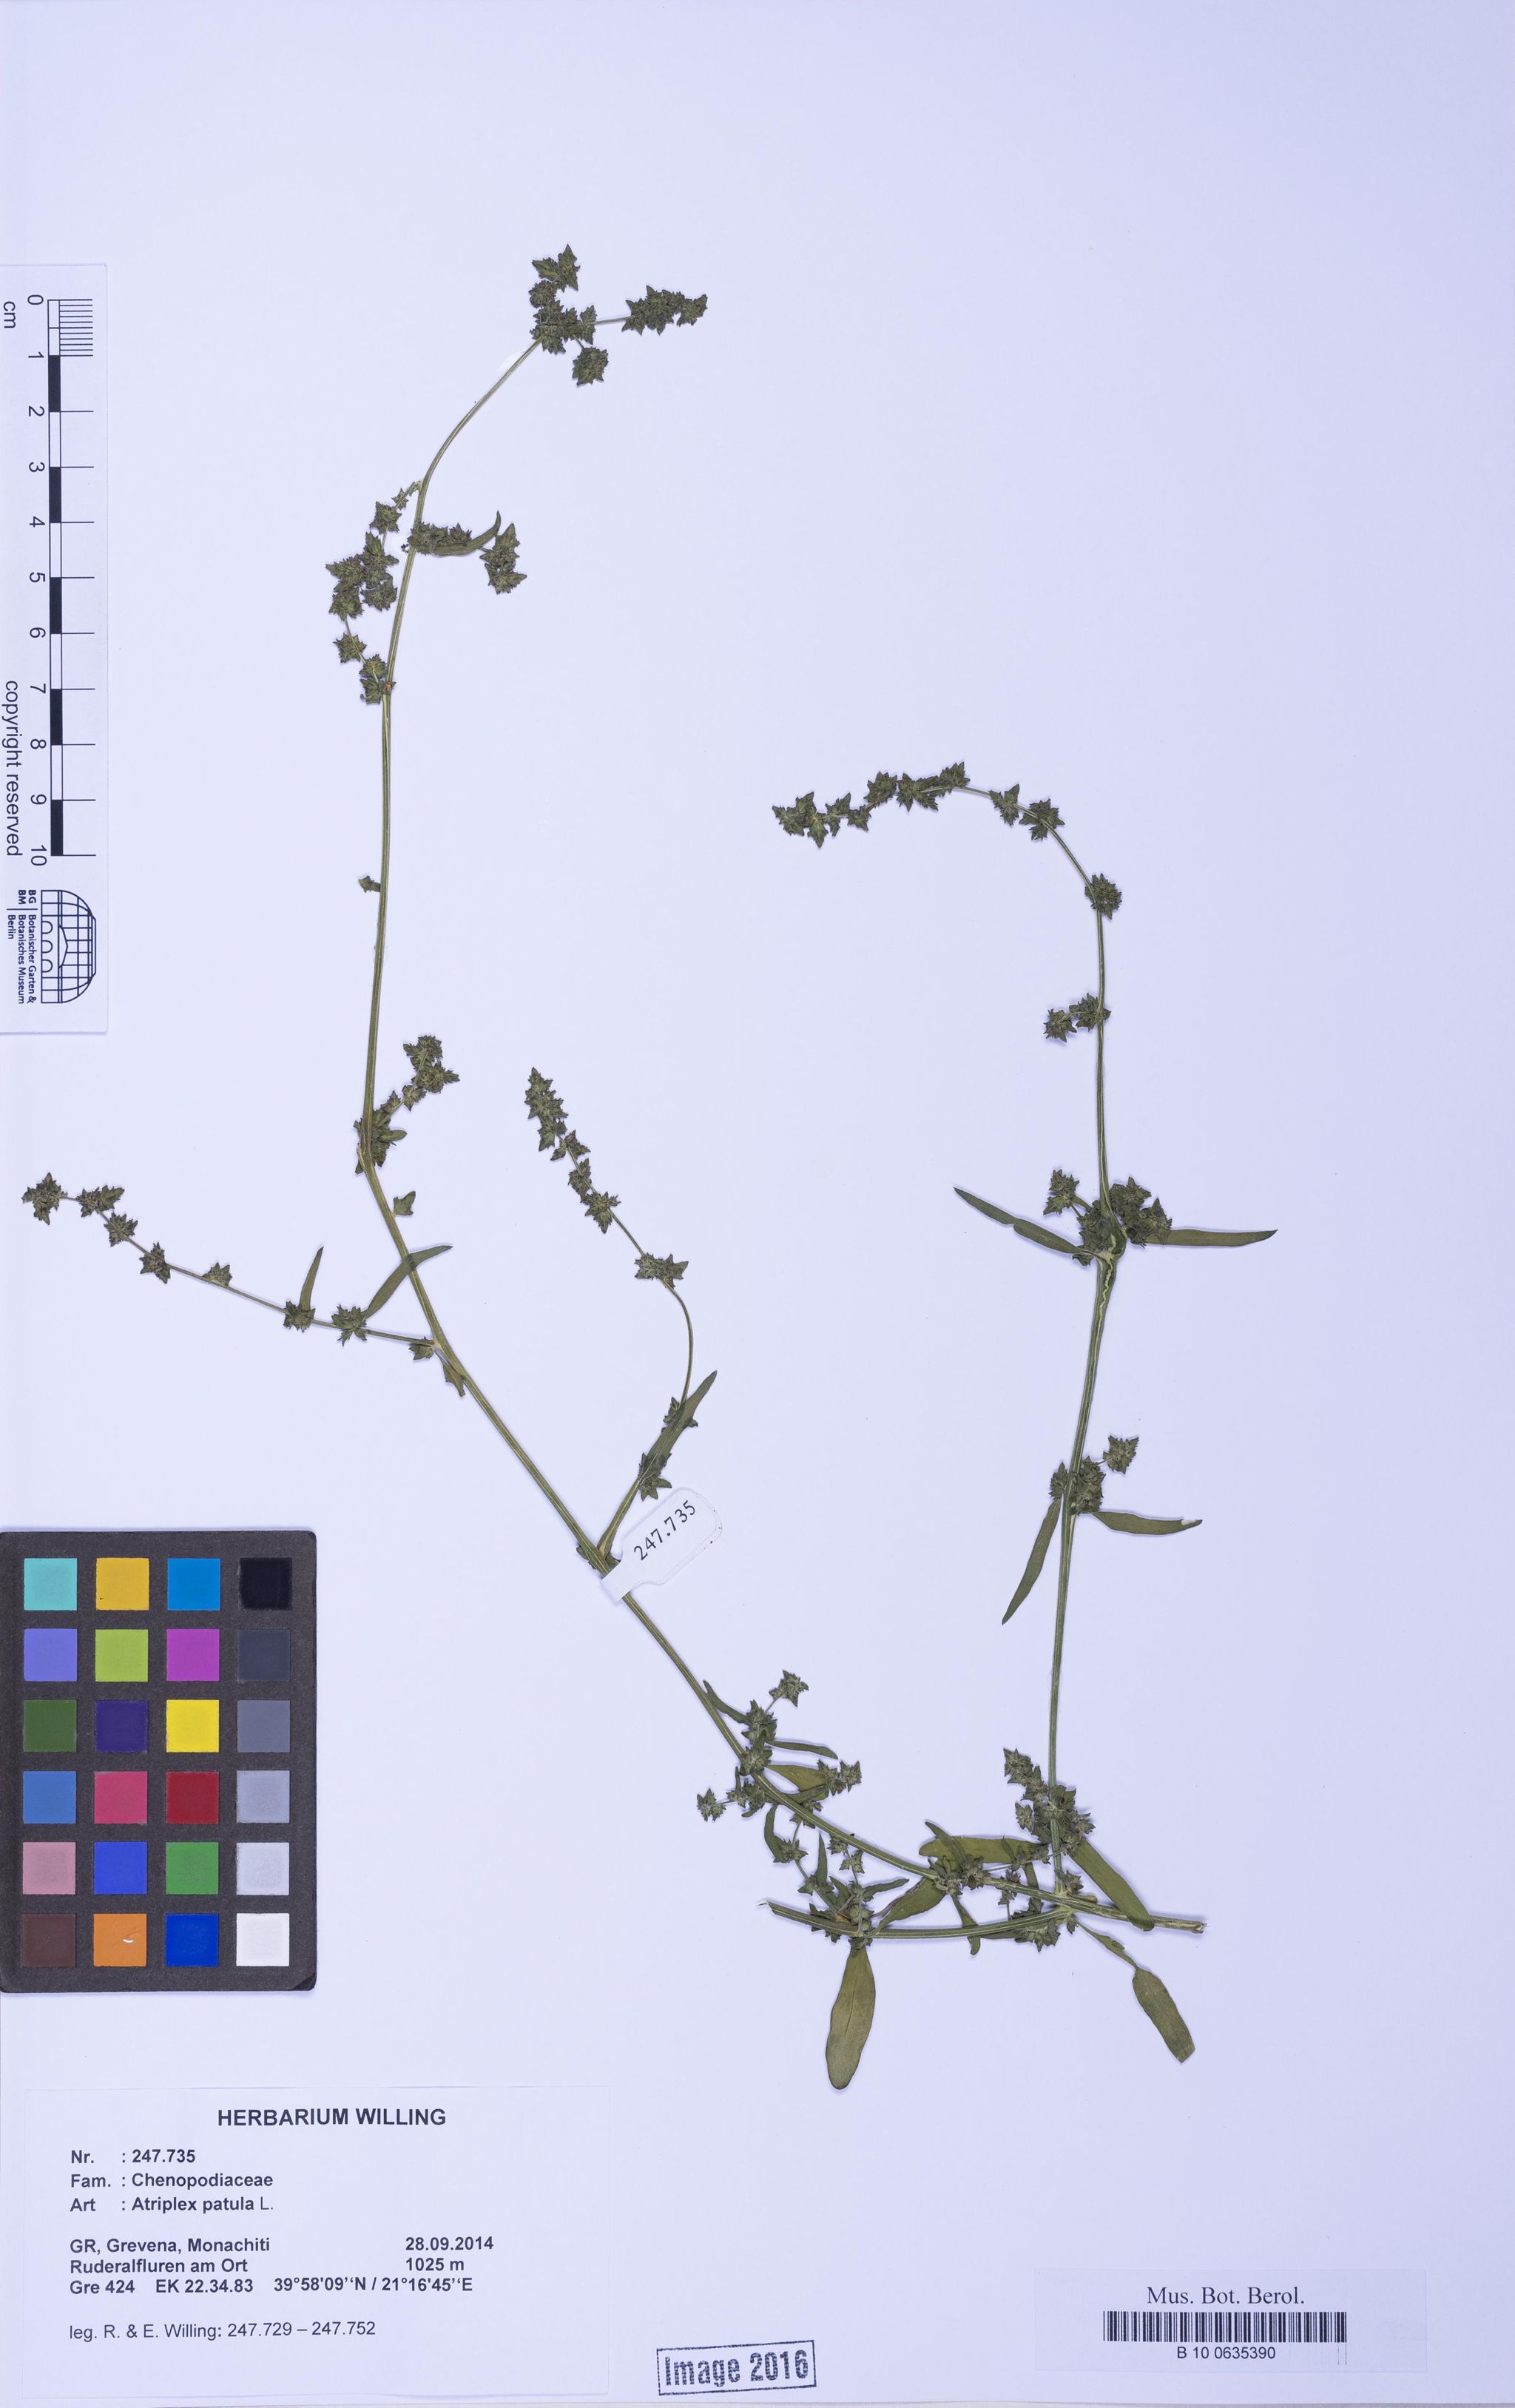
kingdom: Plantae
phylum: Tracheophyta
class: Magnoliopsida
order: Caryophyllales
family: Amaranthaceae
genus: Atriplex
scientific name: Atriplex patula
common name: Common orache
